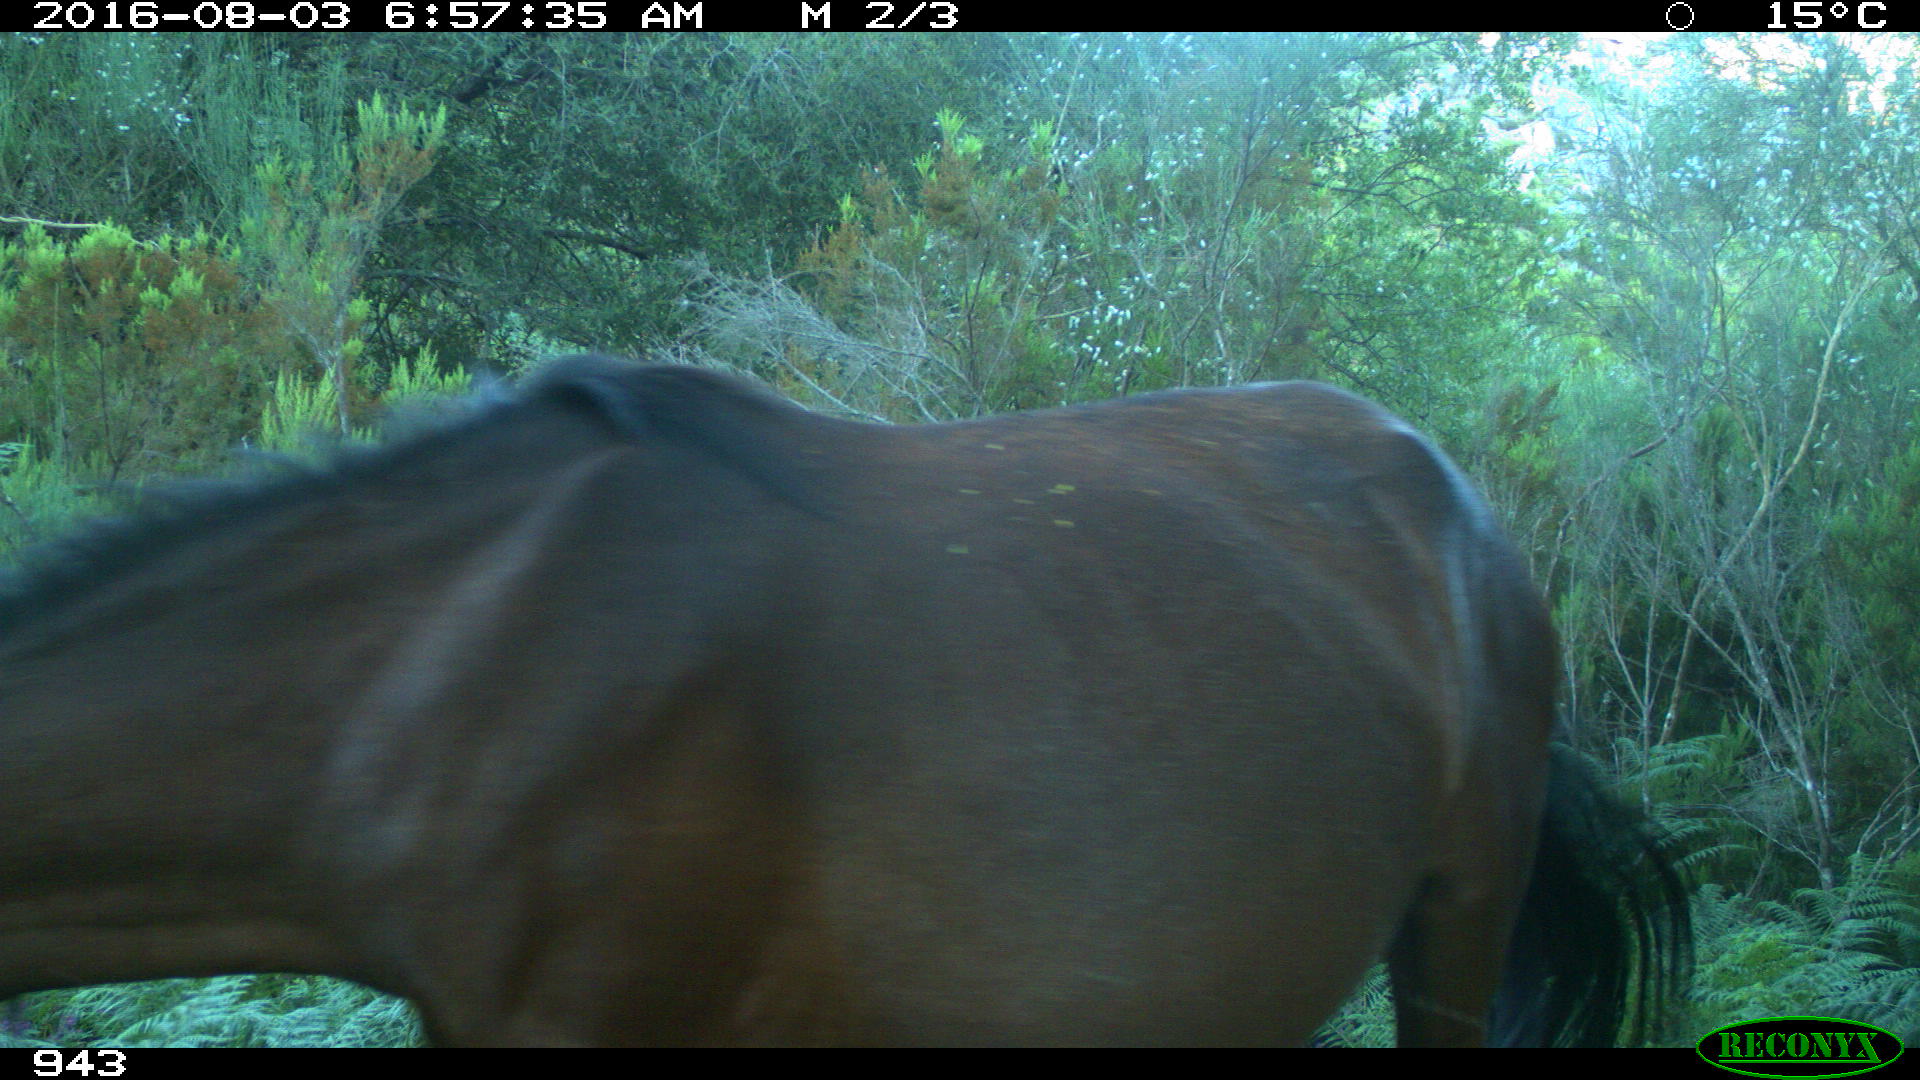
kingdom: Animalia
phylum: Chordata
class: Mammalia
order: Perissodactyla
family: Equidae
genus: Equus
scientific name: Equus caballus
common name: Horse
